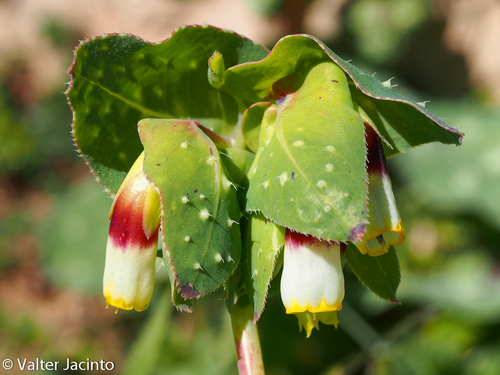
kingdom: Plantae
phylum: Tracheophyta
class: Magnoliopsida
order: Boraginales
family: Boraginaceae
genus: Cerinthe
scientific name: Cerinthe major
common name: Greater honeywort
